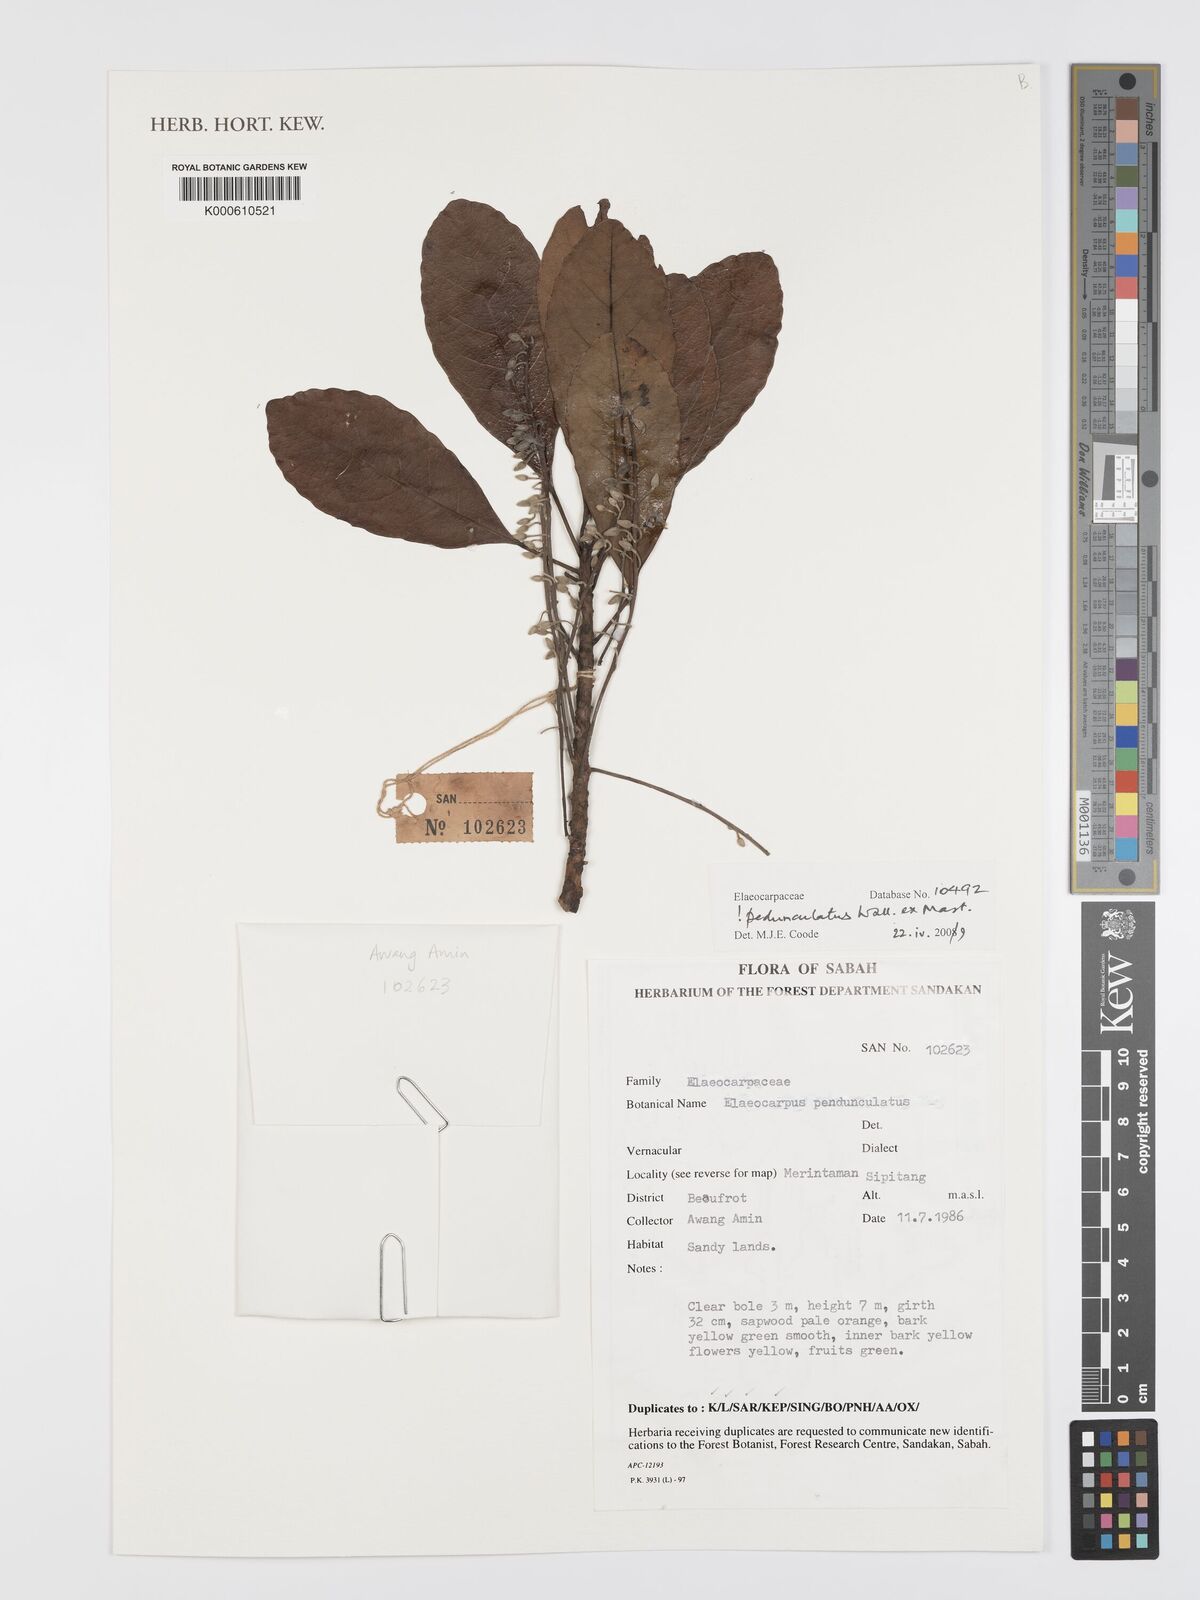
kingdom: Plantae
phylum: Tracheophyta
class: Magnoliopsida
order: Oxalidales
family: Elaeocarpaceae
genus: Elaeocarpus
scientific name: Elaeocarpus pedunculatus
